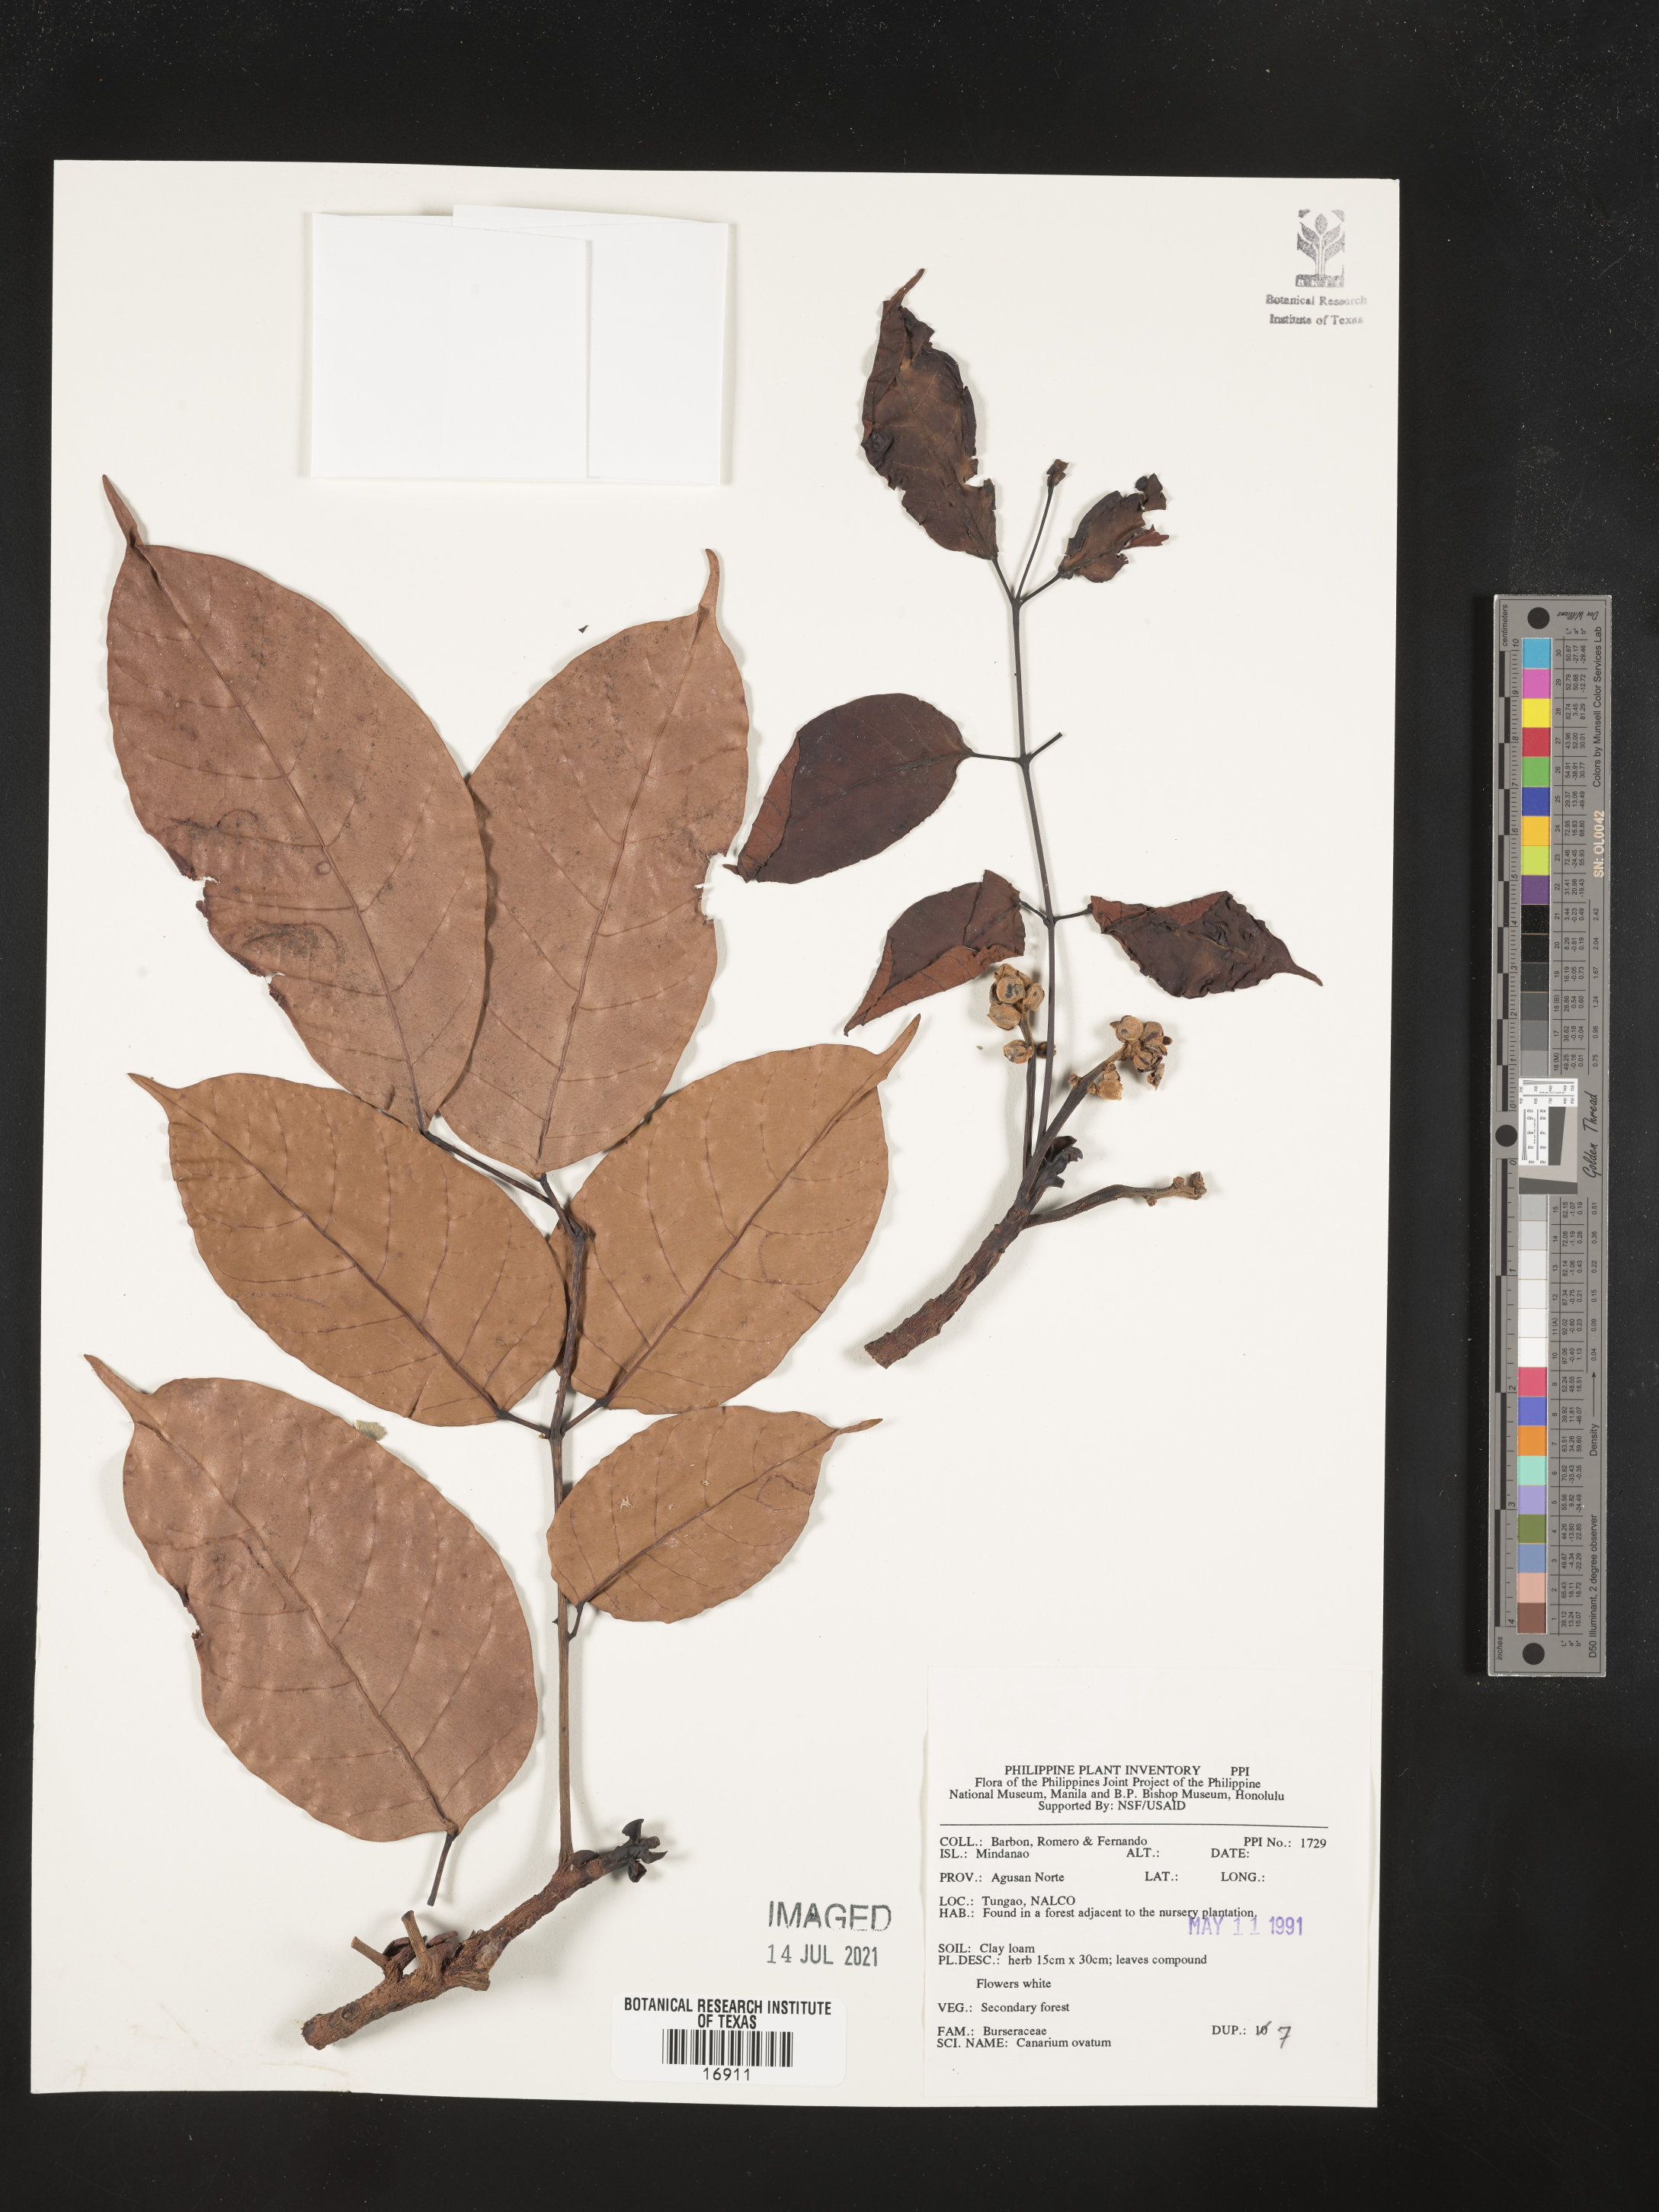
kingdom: Plantae
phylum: Tracheophyta
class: Magnoliopsida
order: Sapindales
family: Burseraceae
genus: Canarium
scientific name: Canarium ovatum
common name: Pilinut
